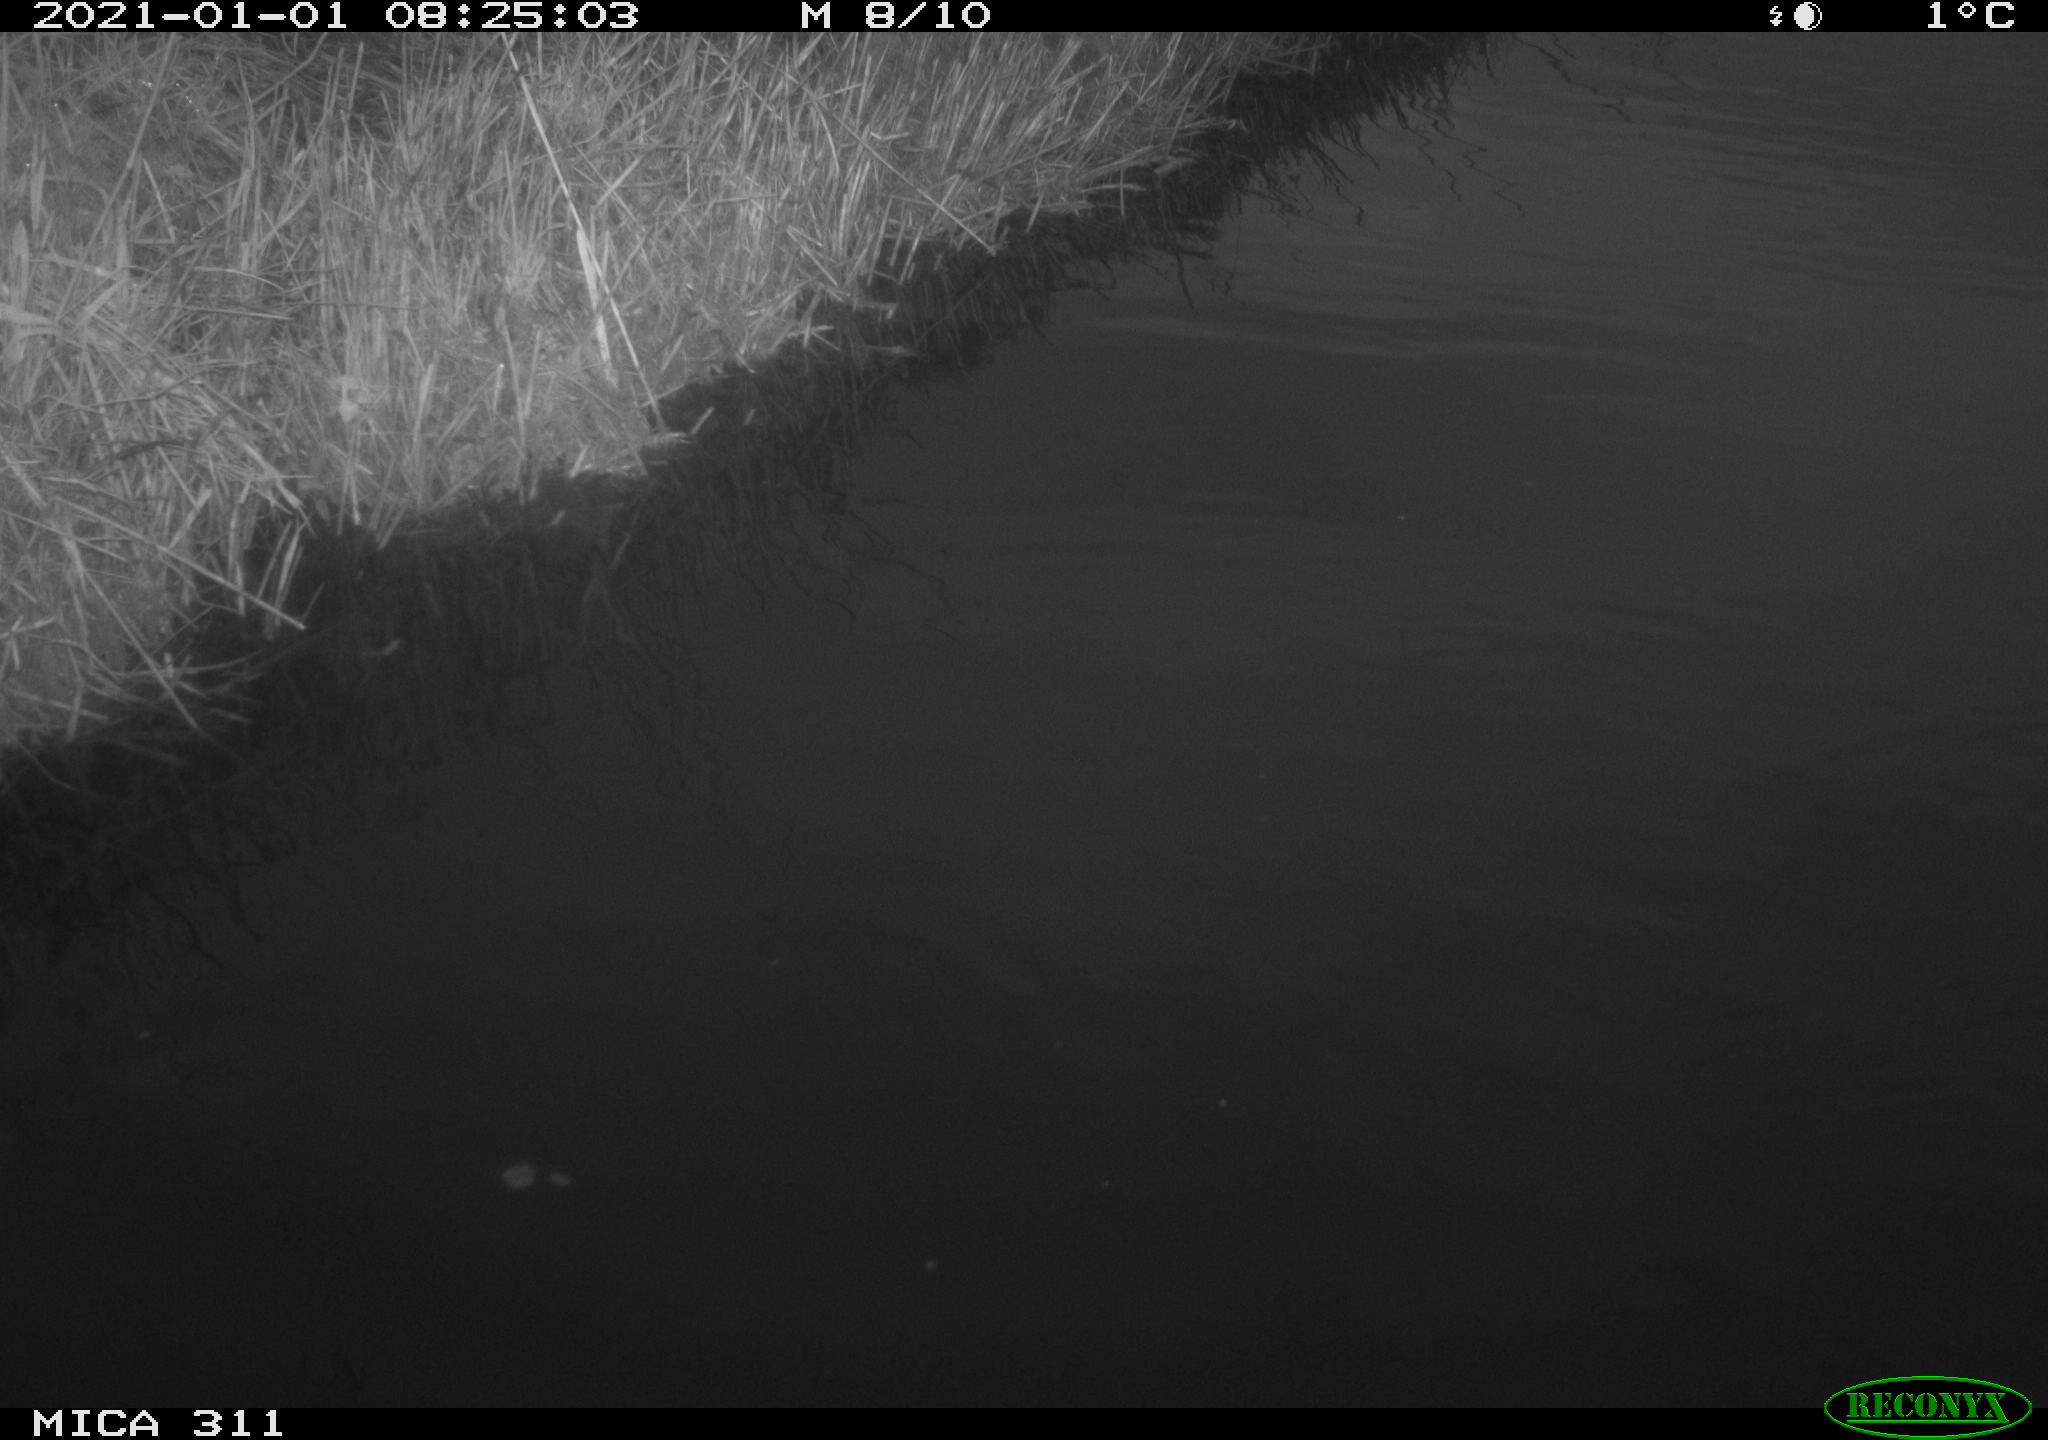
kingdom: Animalia
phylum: Chordata
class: Aves
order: Gruiformes
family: Rallidae
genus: Gallinula
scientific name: Gallinula chloropus
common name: Common moorhen
